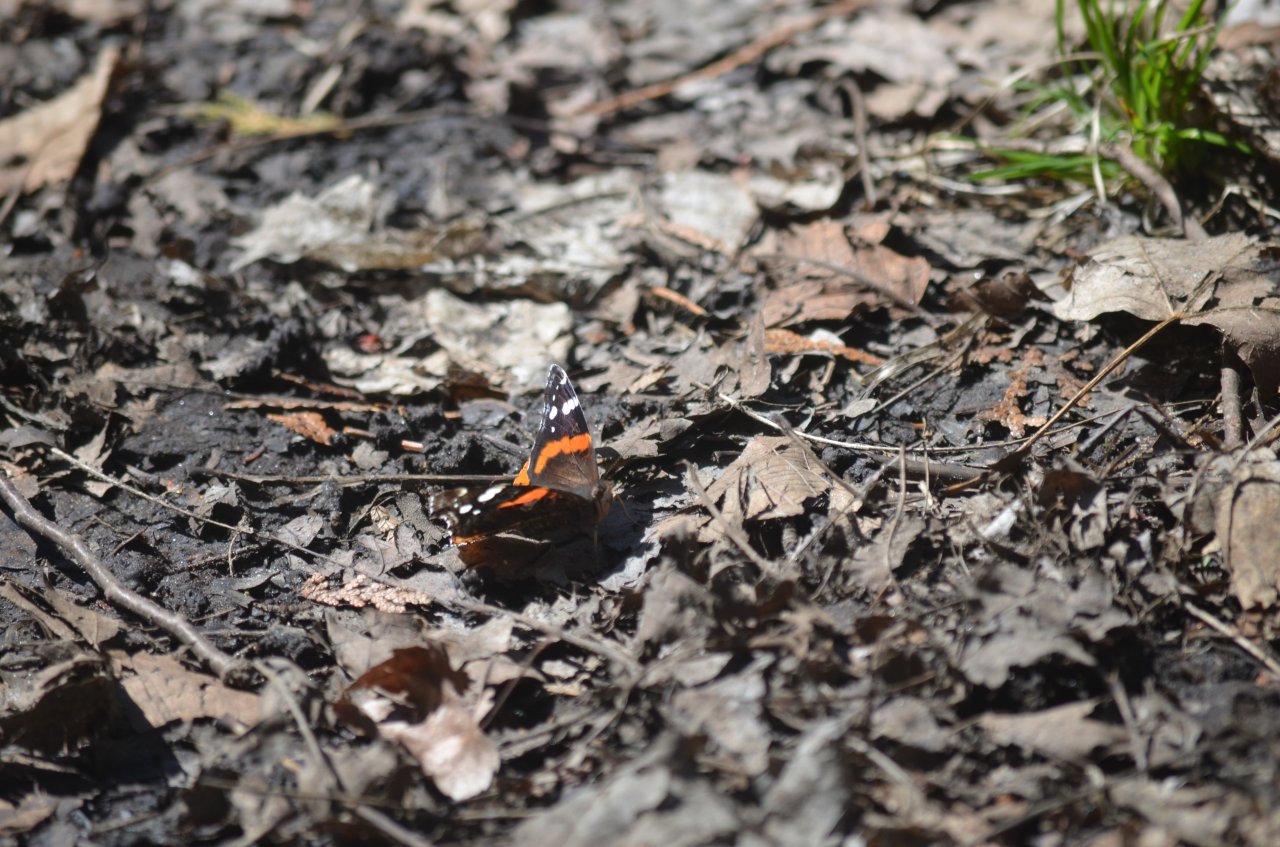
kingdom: Animalia
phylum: Arthropoda
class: Insecta
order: Lepidoptera
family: Nymphalidae
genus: Vanessa
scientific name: Vanessa atalanta
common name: Red Admiral
